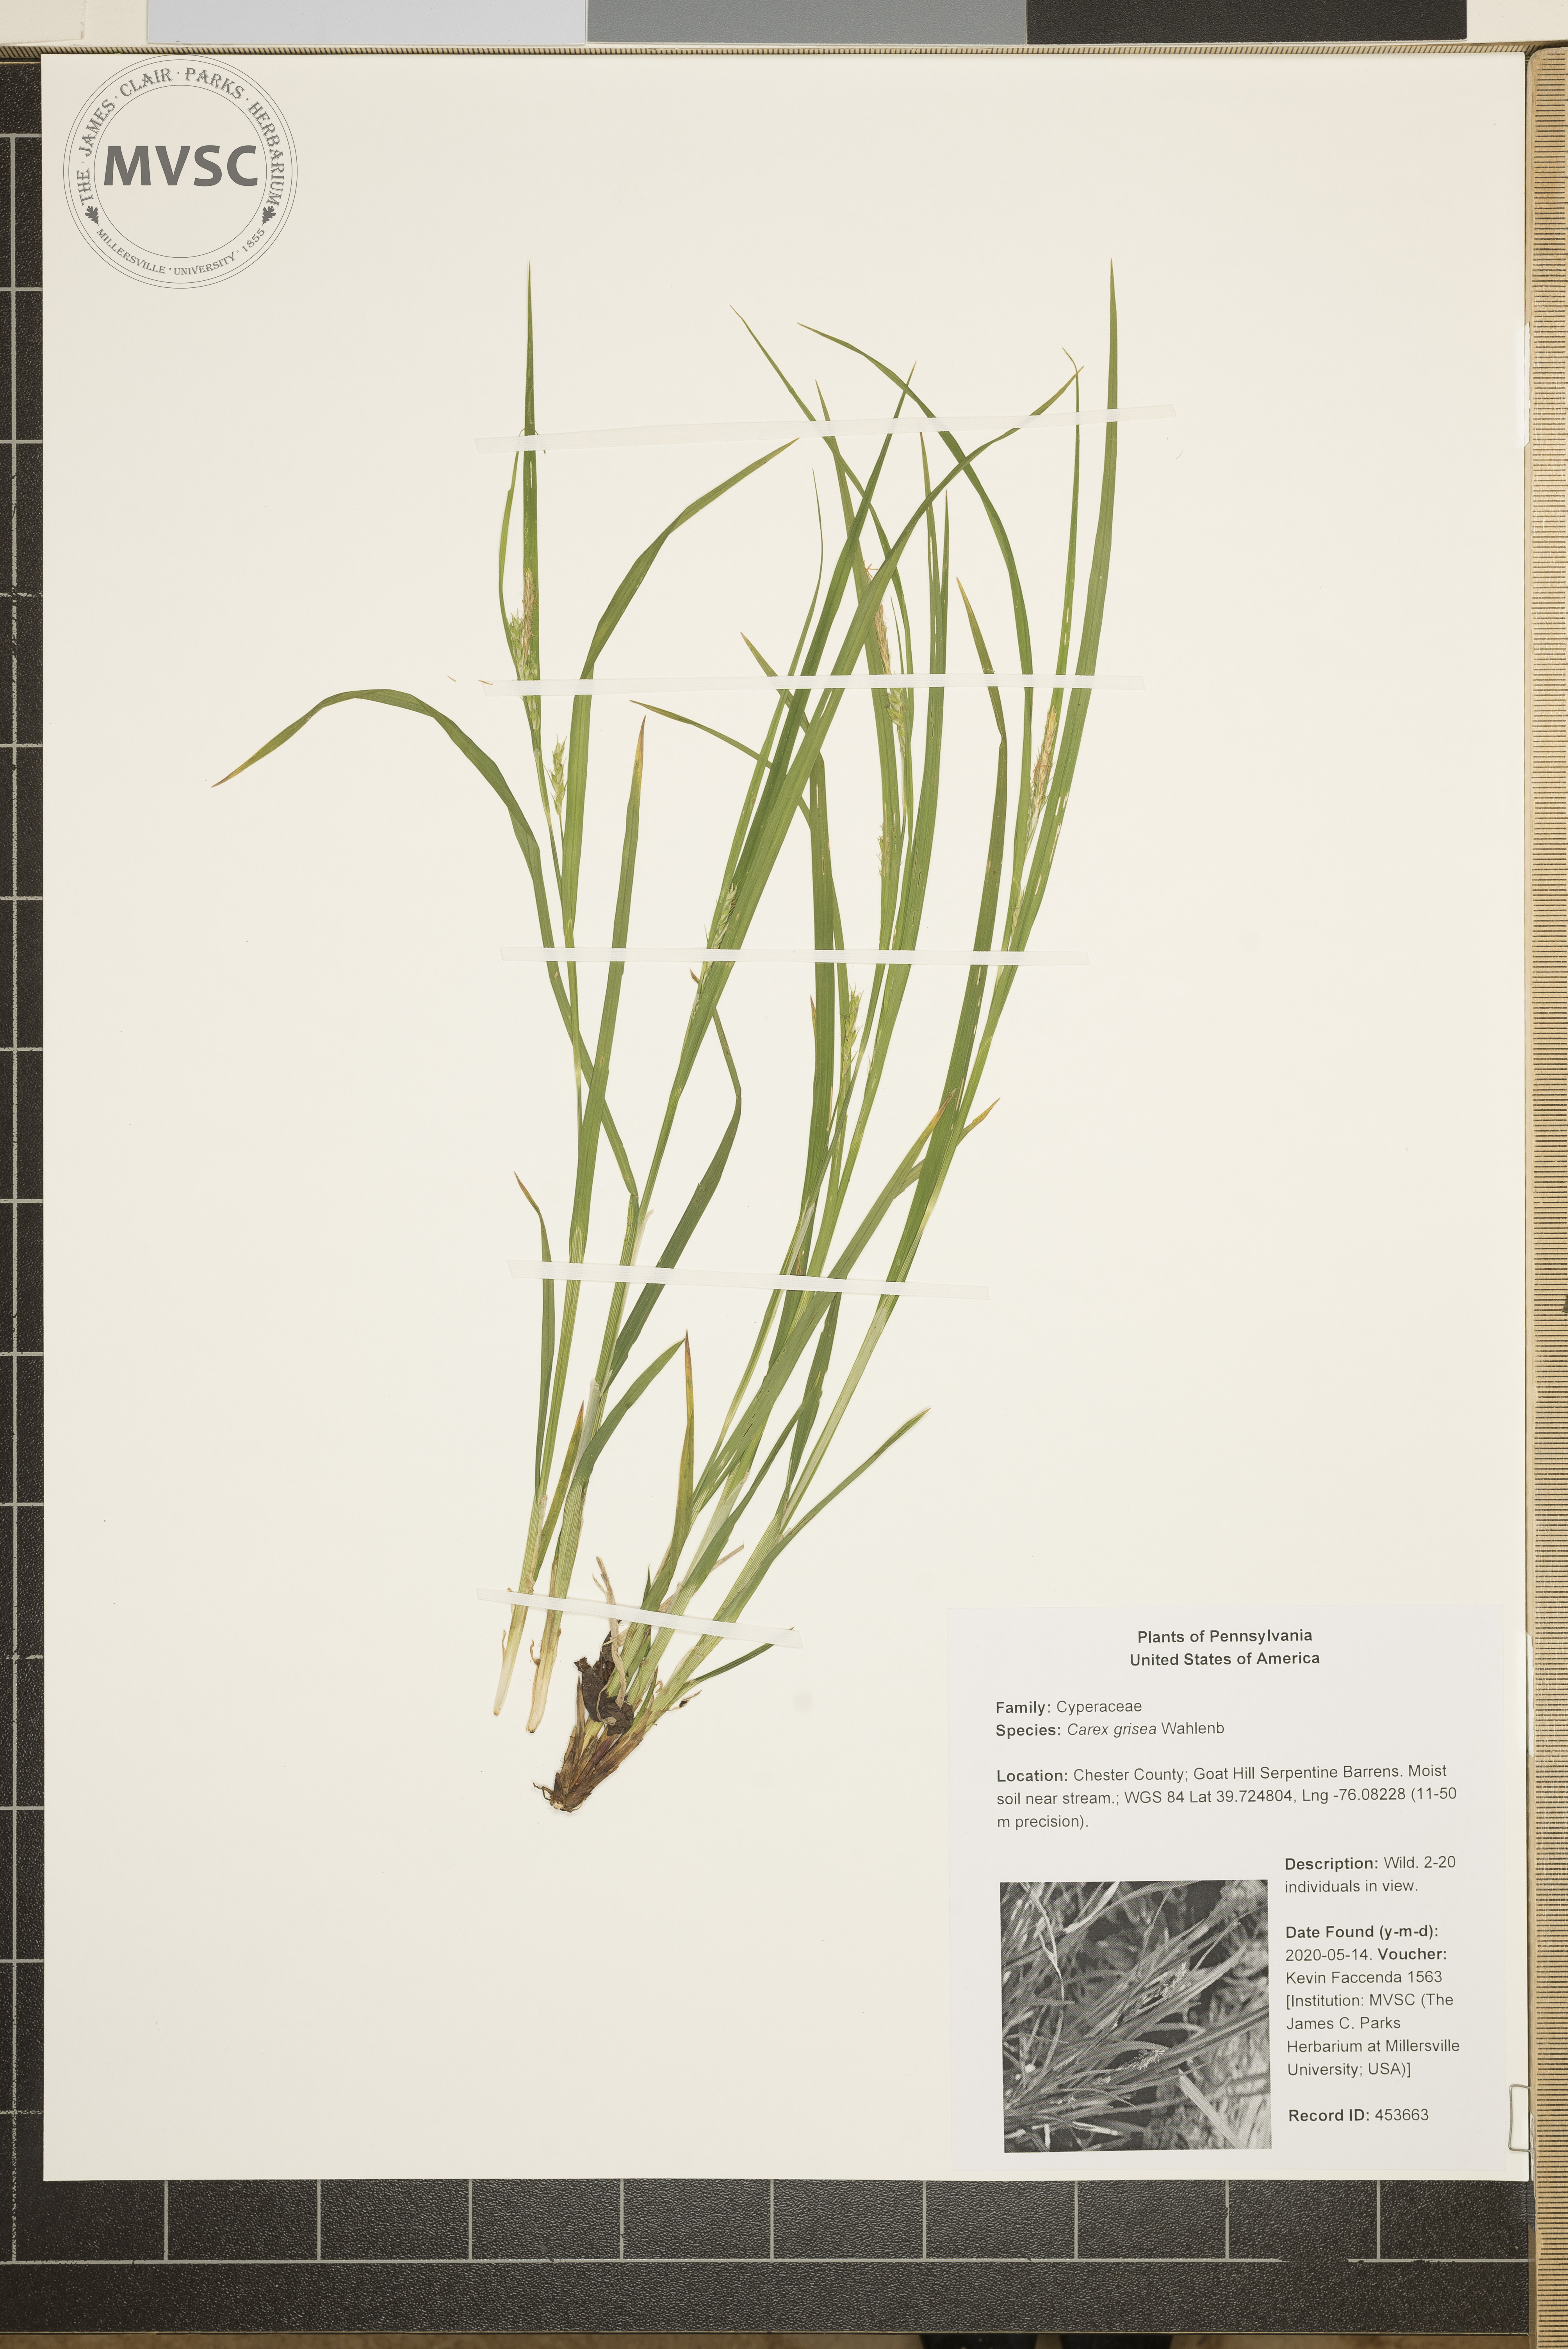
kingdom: Plantae
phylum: Tracheophyta
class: Liliopsida
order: Poales
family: Cyperaceae
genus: Carex
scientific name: Carex grisea
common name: Eastern narrow-leaved sedge
